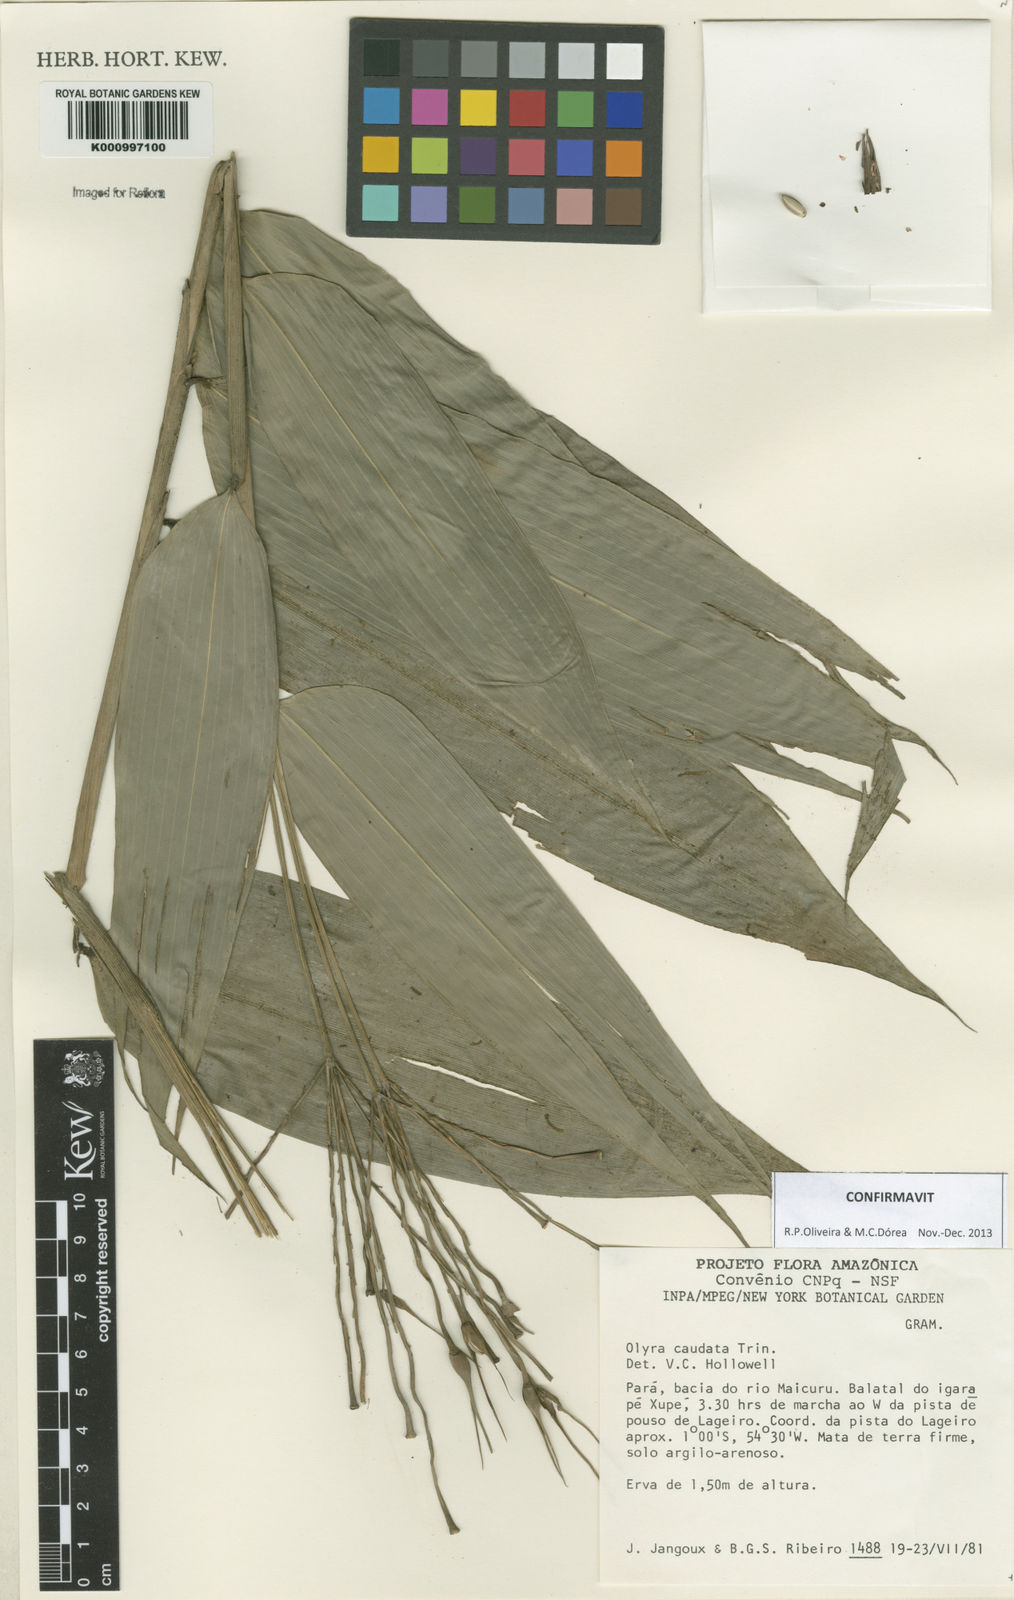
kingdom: Plantae
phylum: Tracheophyta
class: Liliopsida
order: Poales
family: Poaceae
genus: Olyra
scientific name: Olyra caudata
